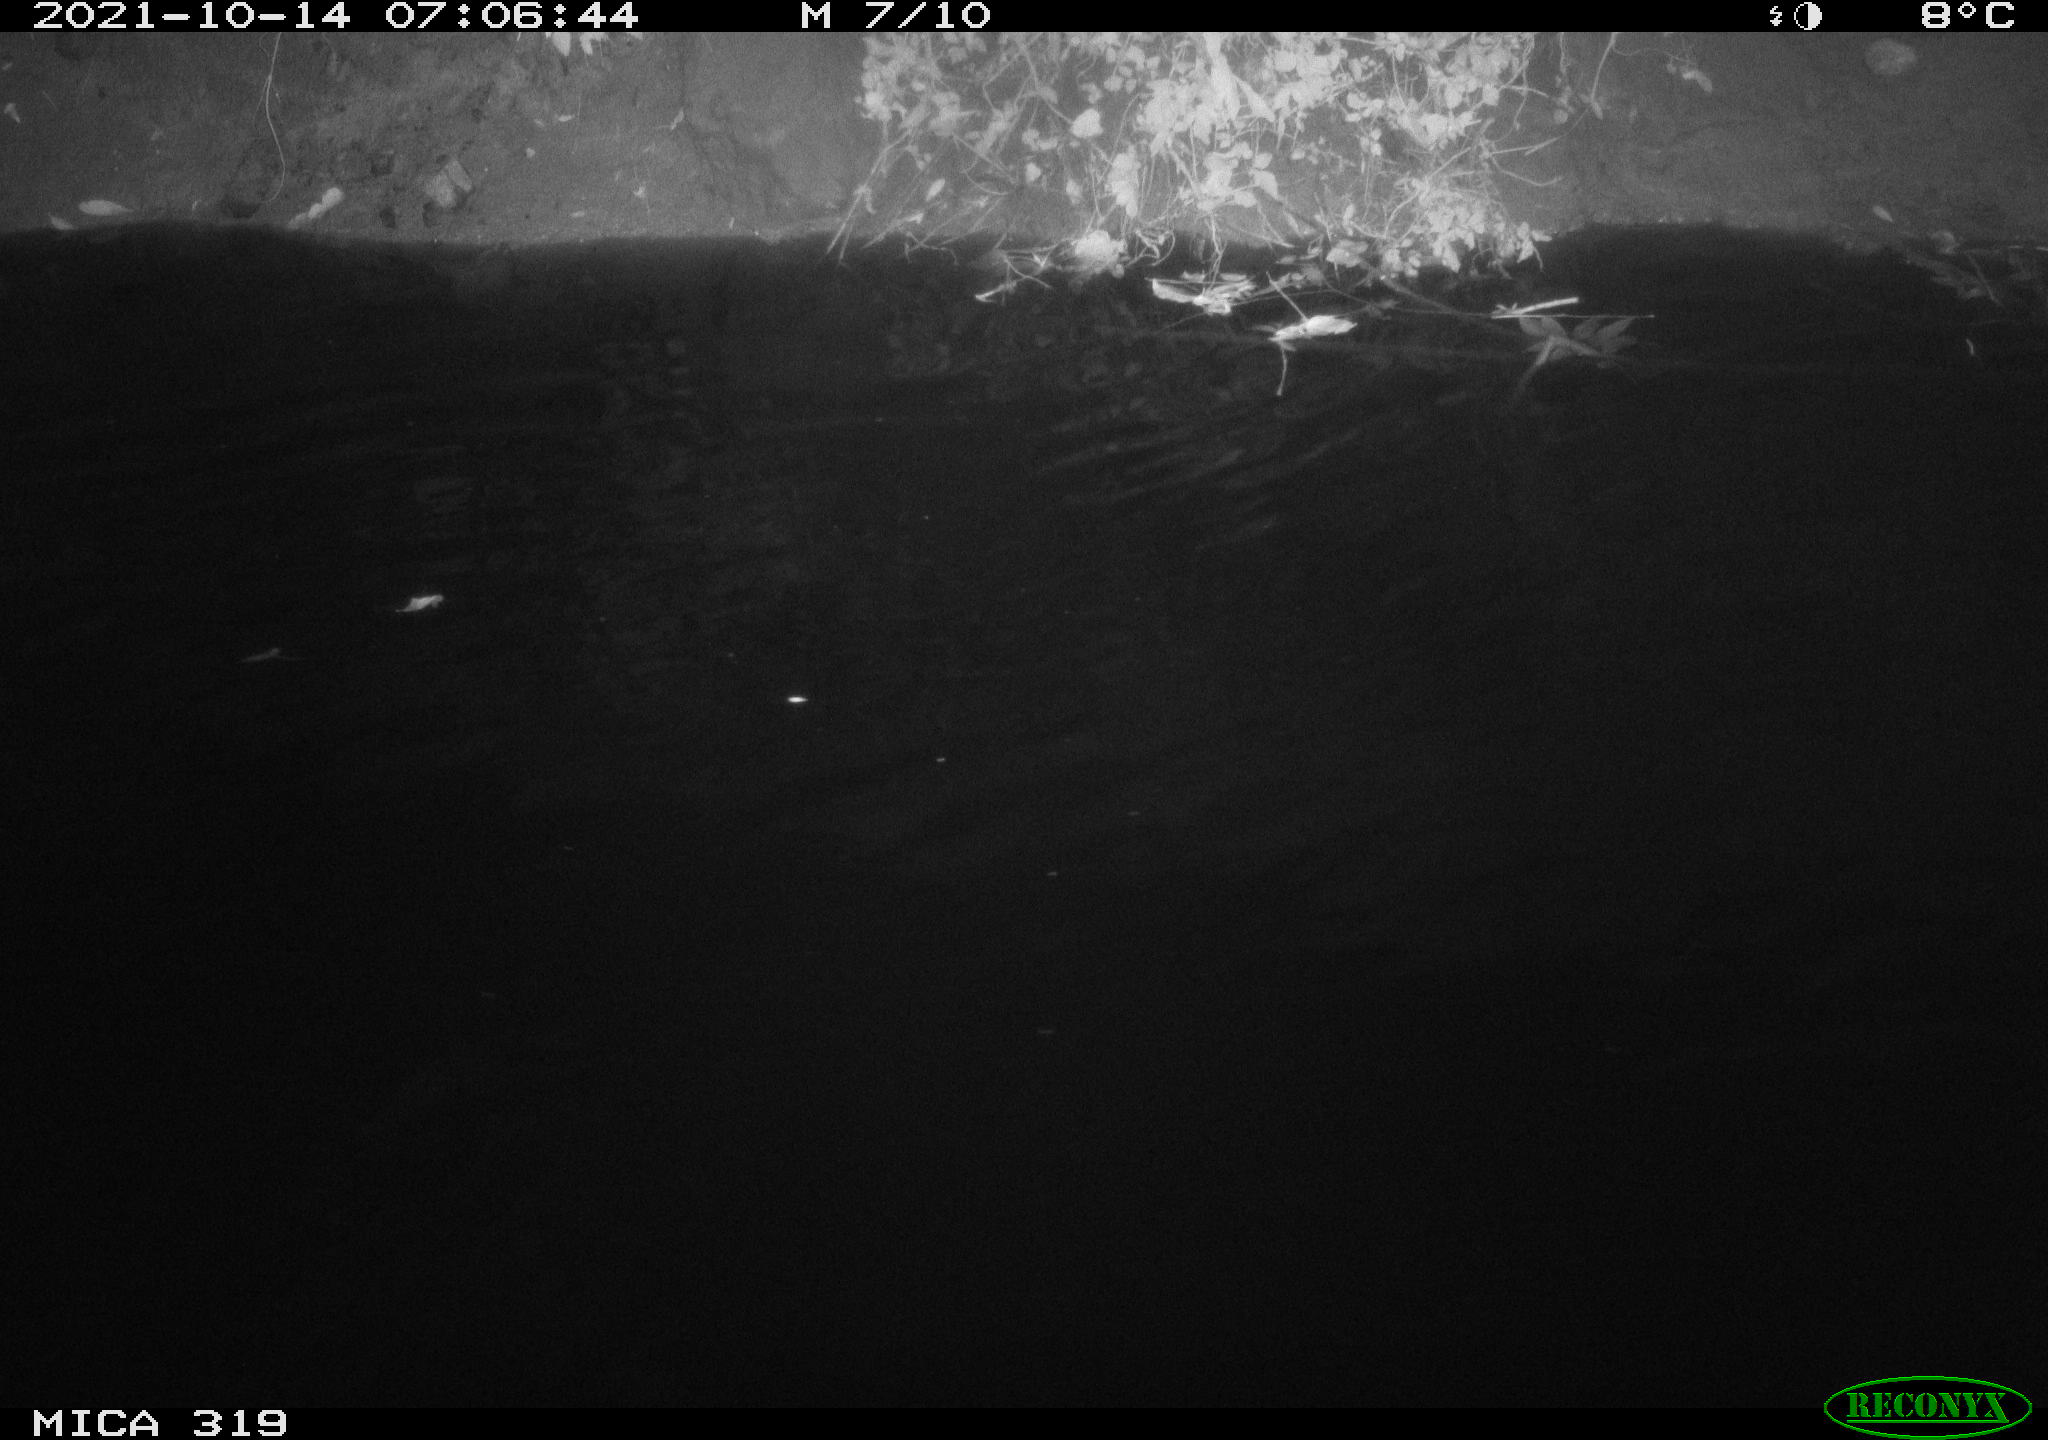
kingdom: Animalia
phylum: Chordata
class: Aves
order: Anseriformes
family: Anatidae
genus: Anas
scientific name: Anas platyrhynchos
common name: Mallard
